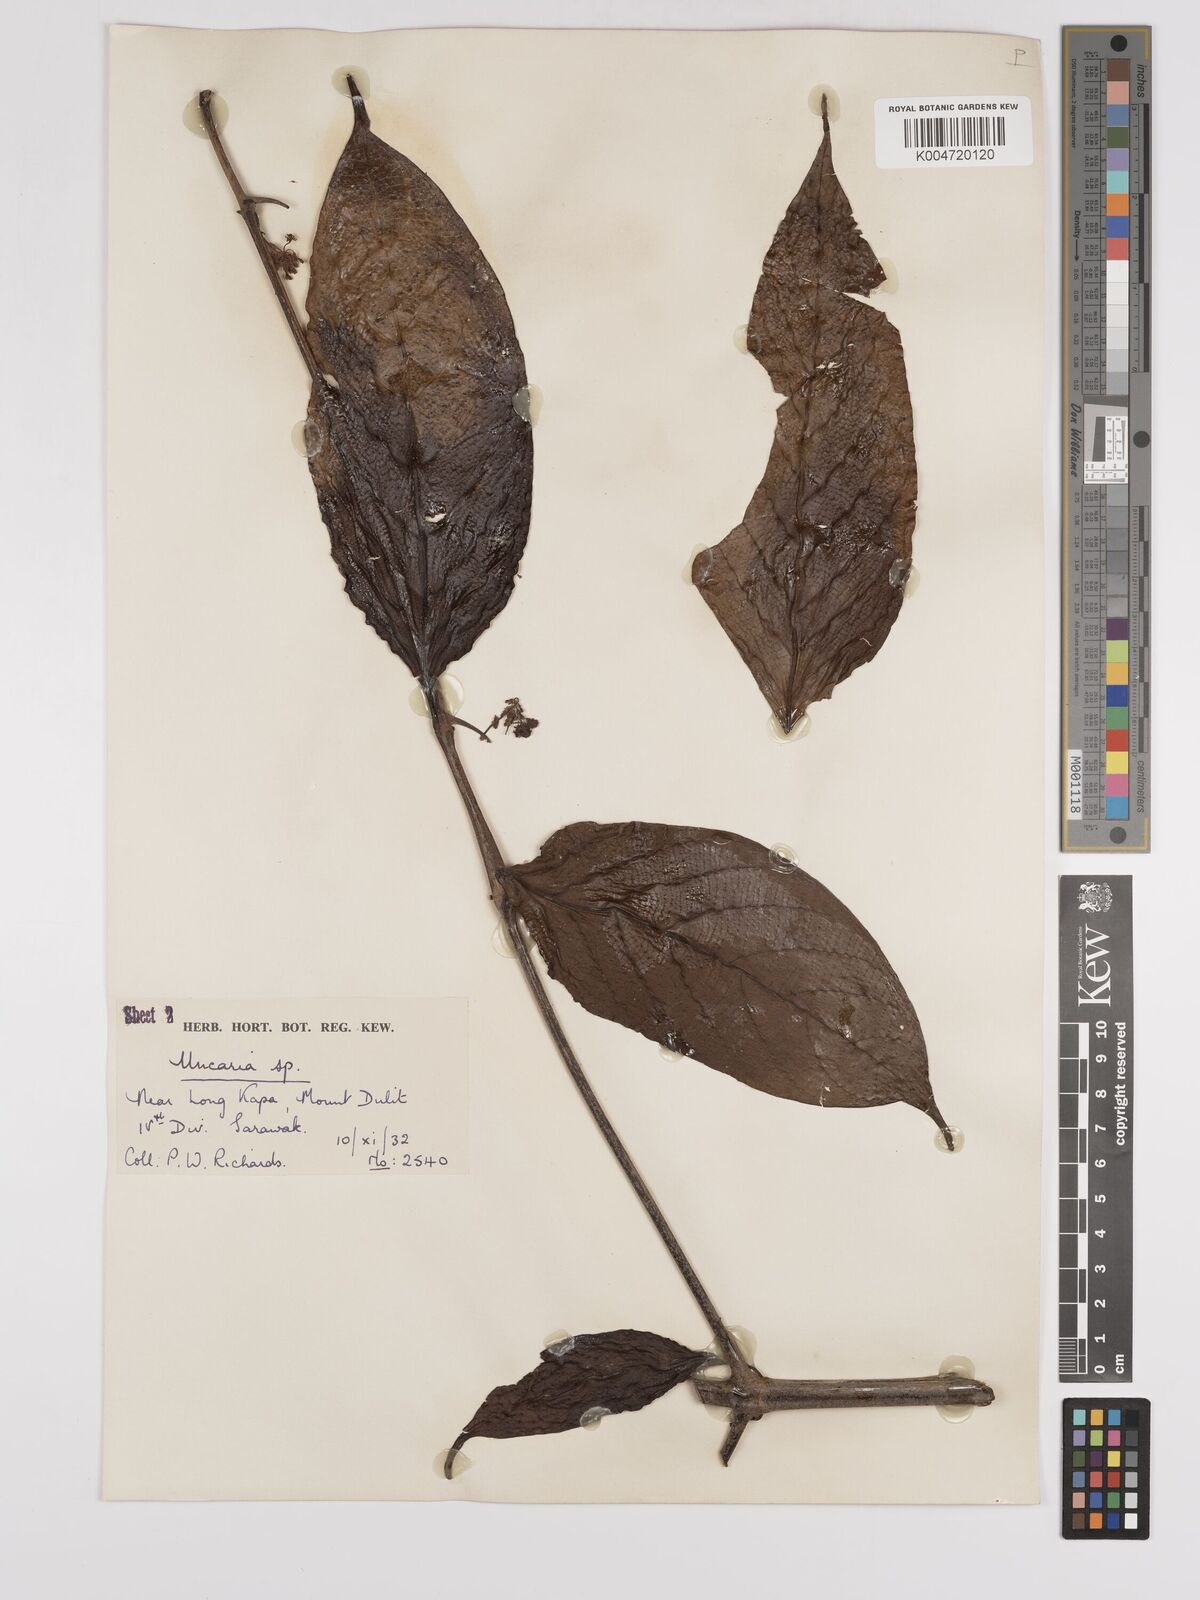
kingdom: Plantae
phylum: Tracheophyta
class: Magnoliopsida
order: Gentianales
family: Rubiaceae
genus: Uncaria
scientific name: Uncaria
